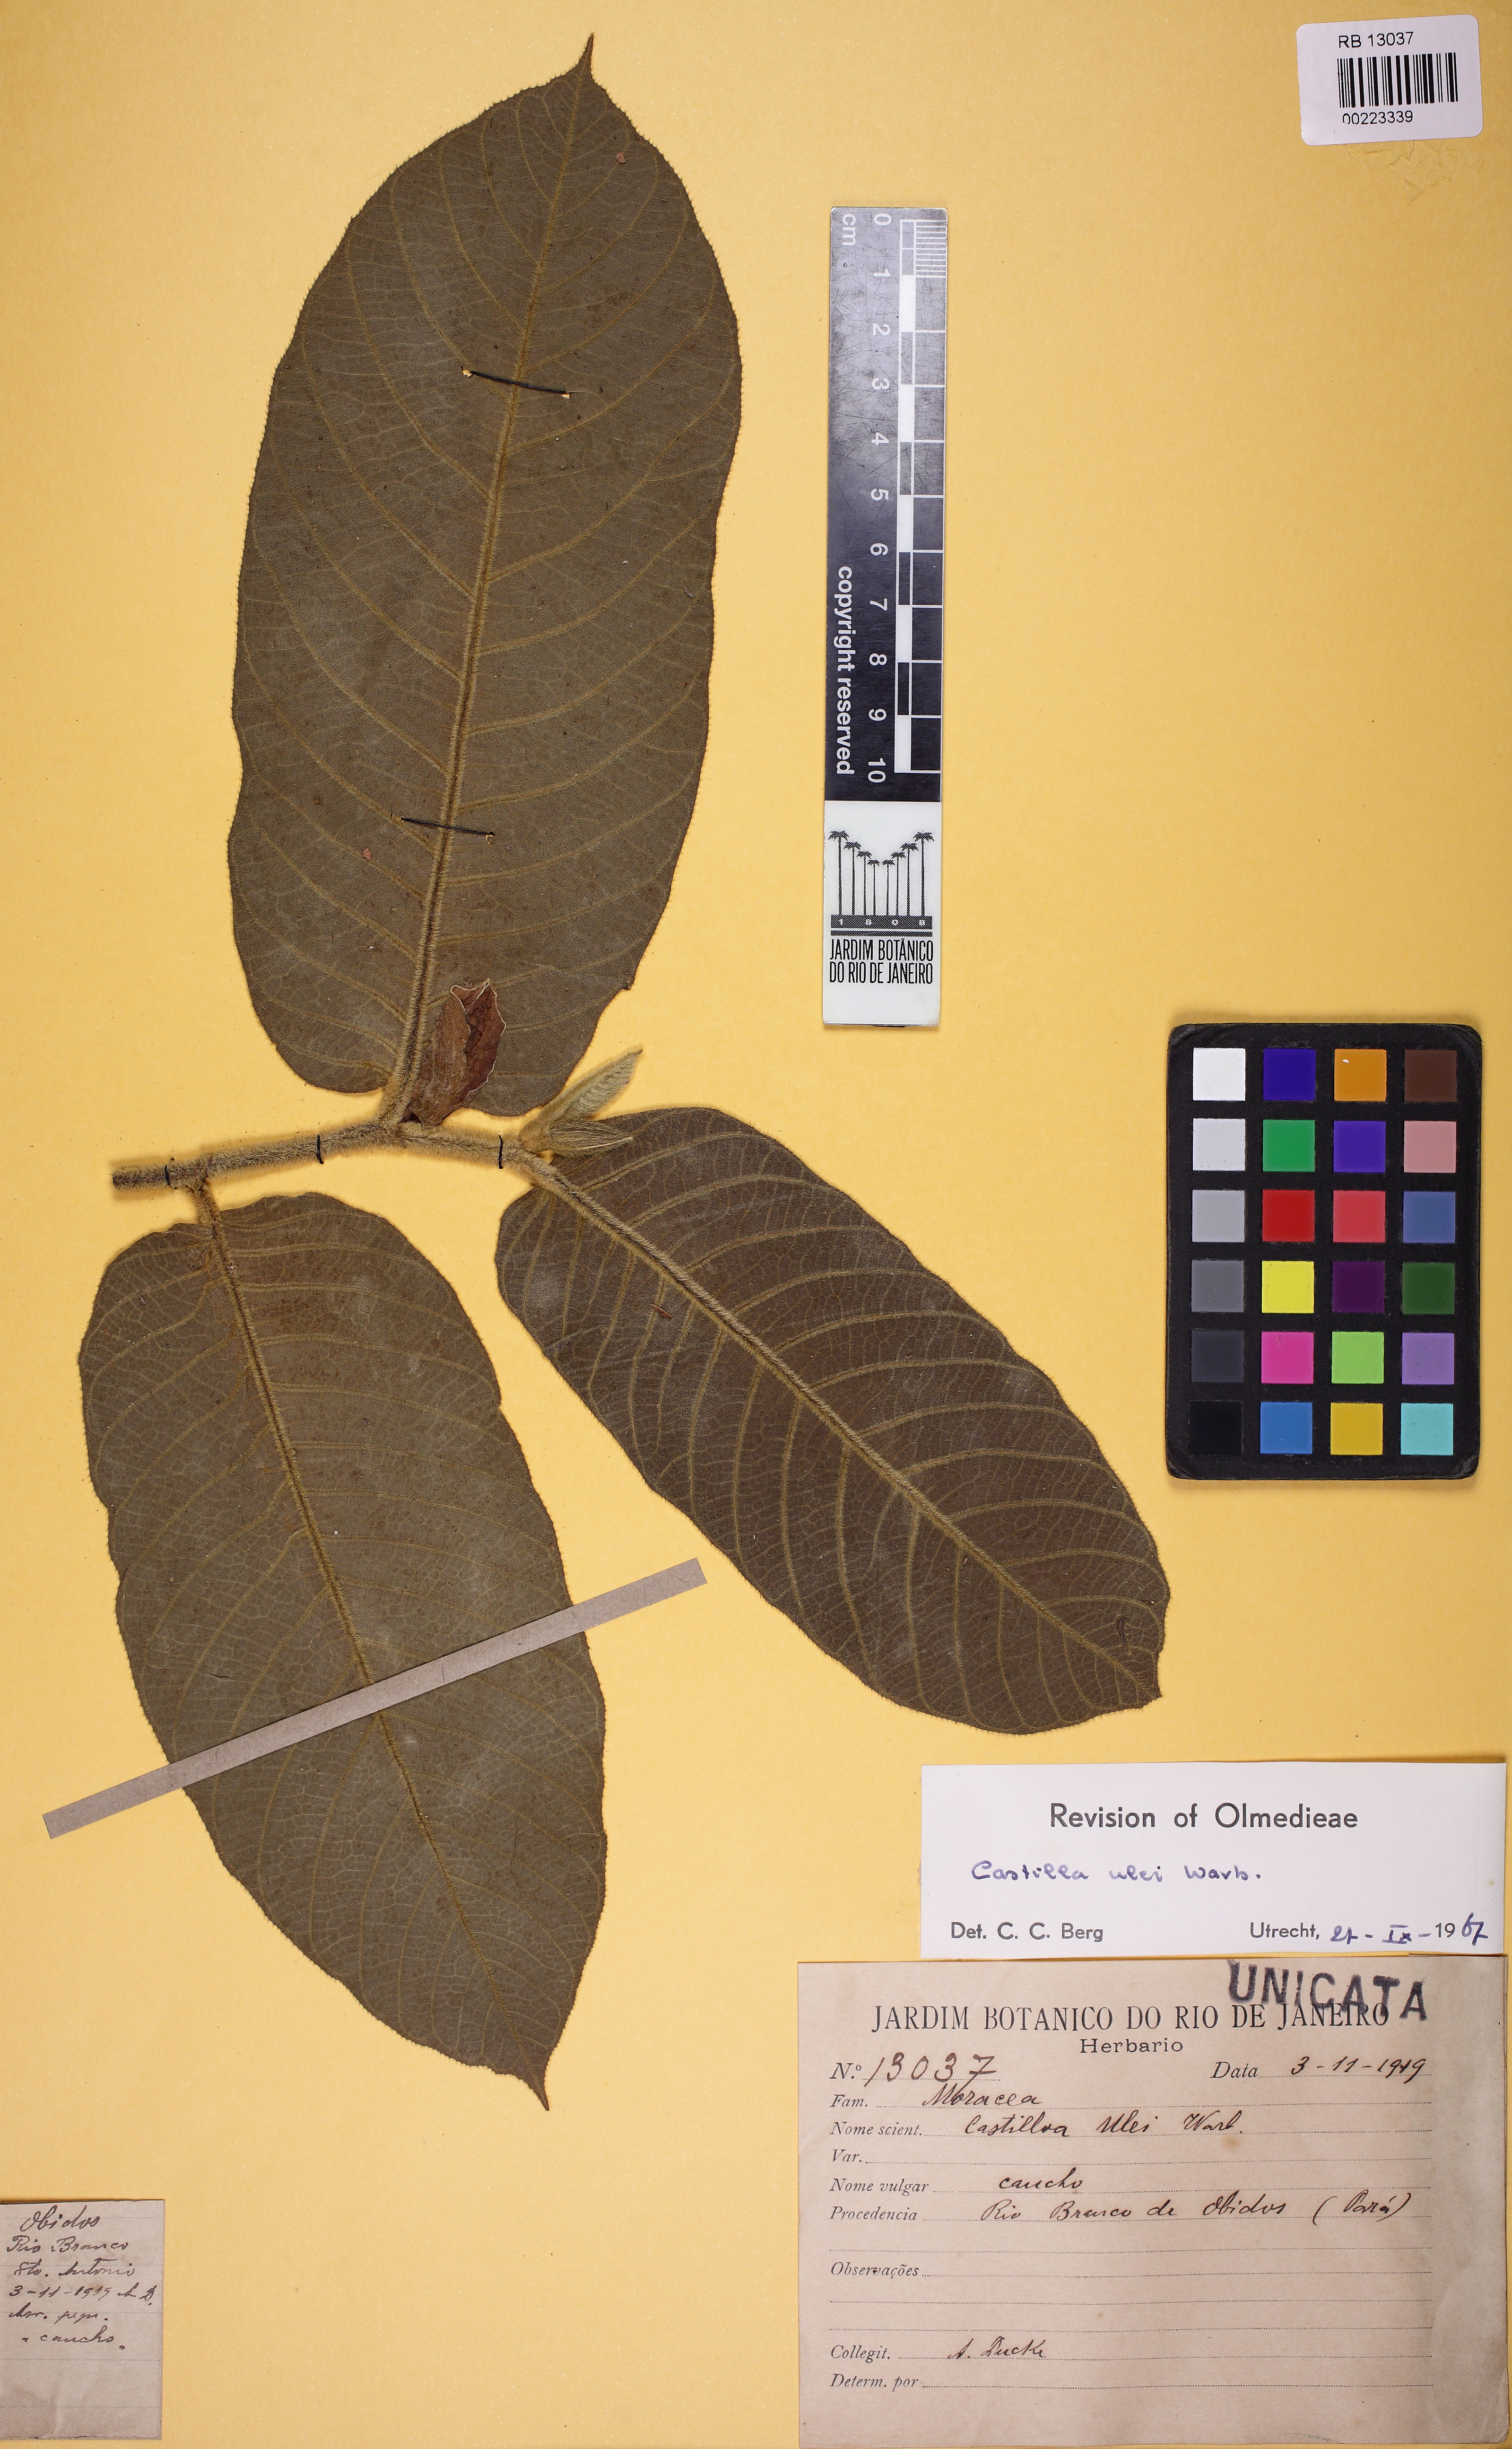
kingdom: Plantae
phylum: Tracheophyta
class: Magnoliopsida
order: Rosales
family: Moraceae
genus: Castilla
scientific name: Castilla ulei
